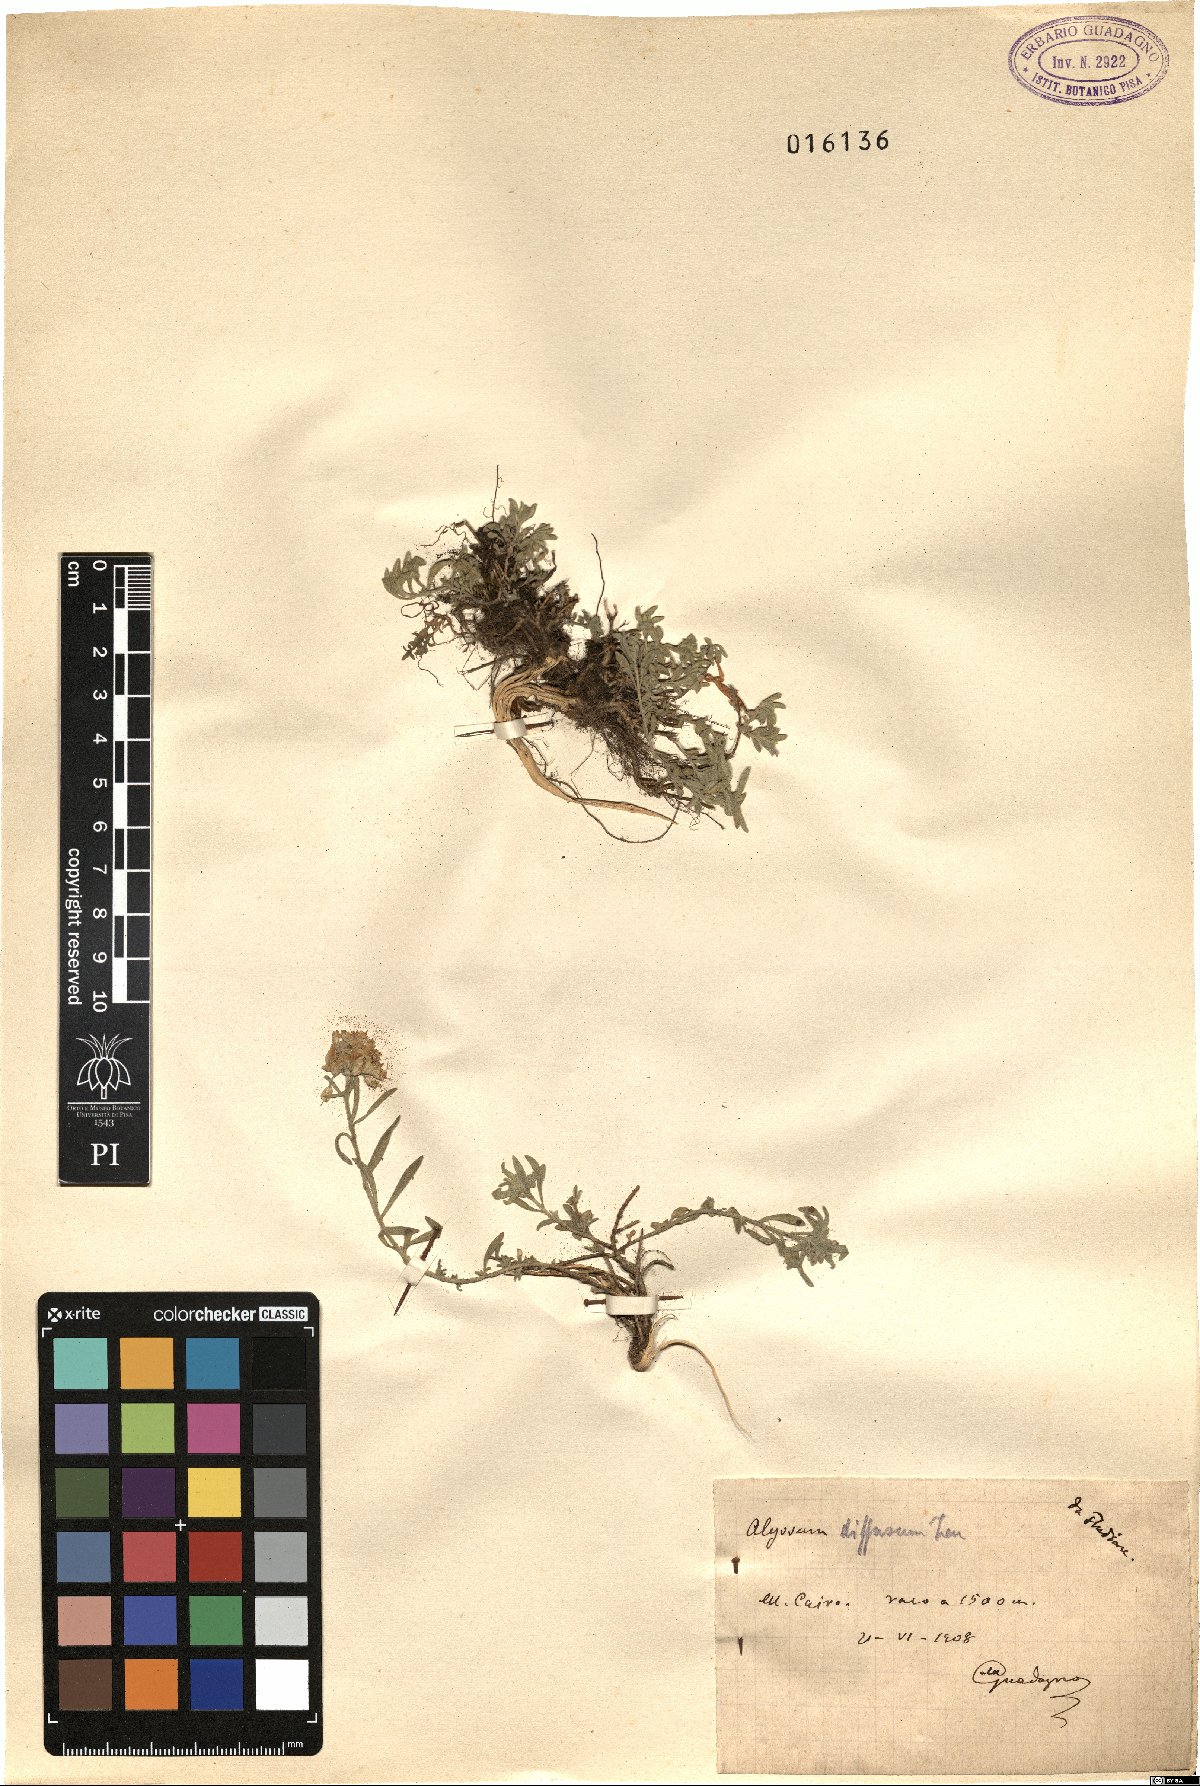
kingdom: Plantae
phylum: Tracheophyta
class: Magnoliopsida
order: Brassicales
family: Brassicaceae
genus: Alyssum
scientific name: Alyssum diffusum
